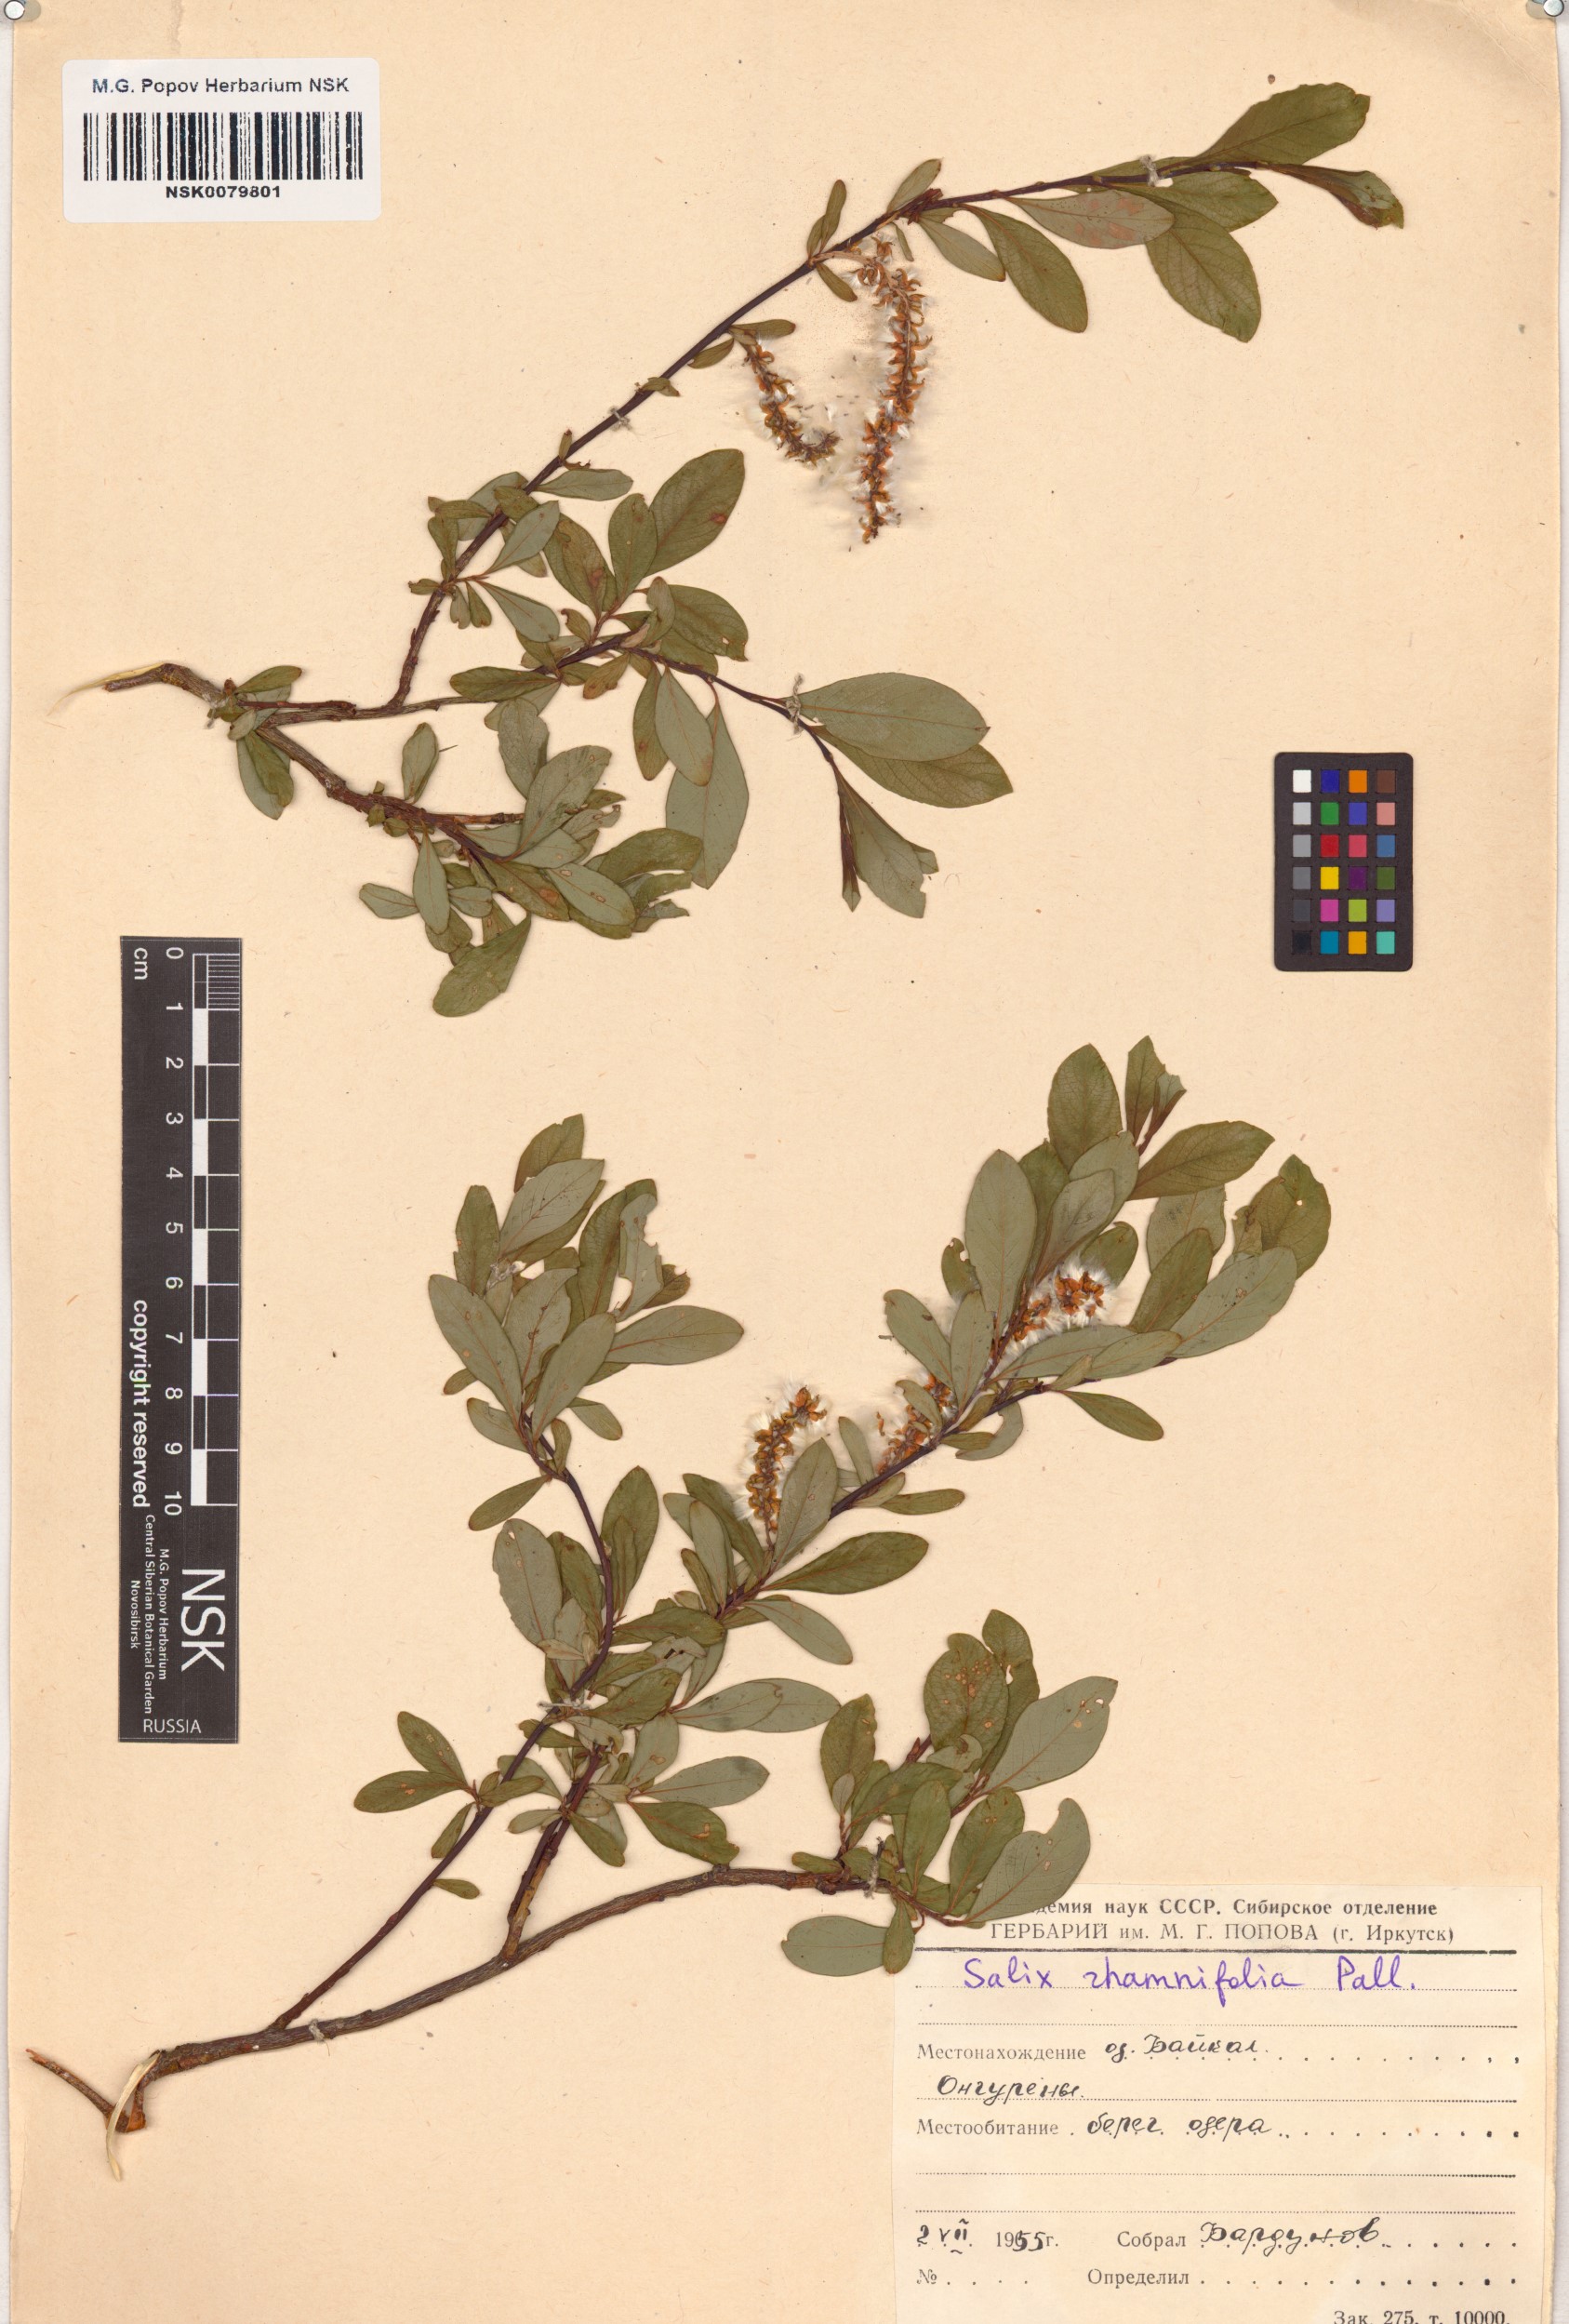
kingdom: Plantae
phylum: Tracheophyta
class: Magnoliopsida
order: Malpighiales
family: Salicaceae
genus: Salix
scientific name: Salix rhamnifolia
